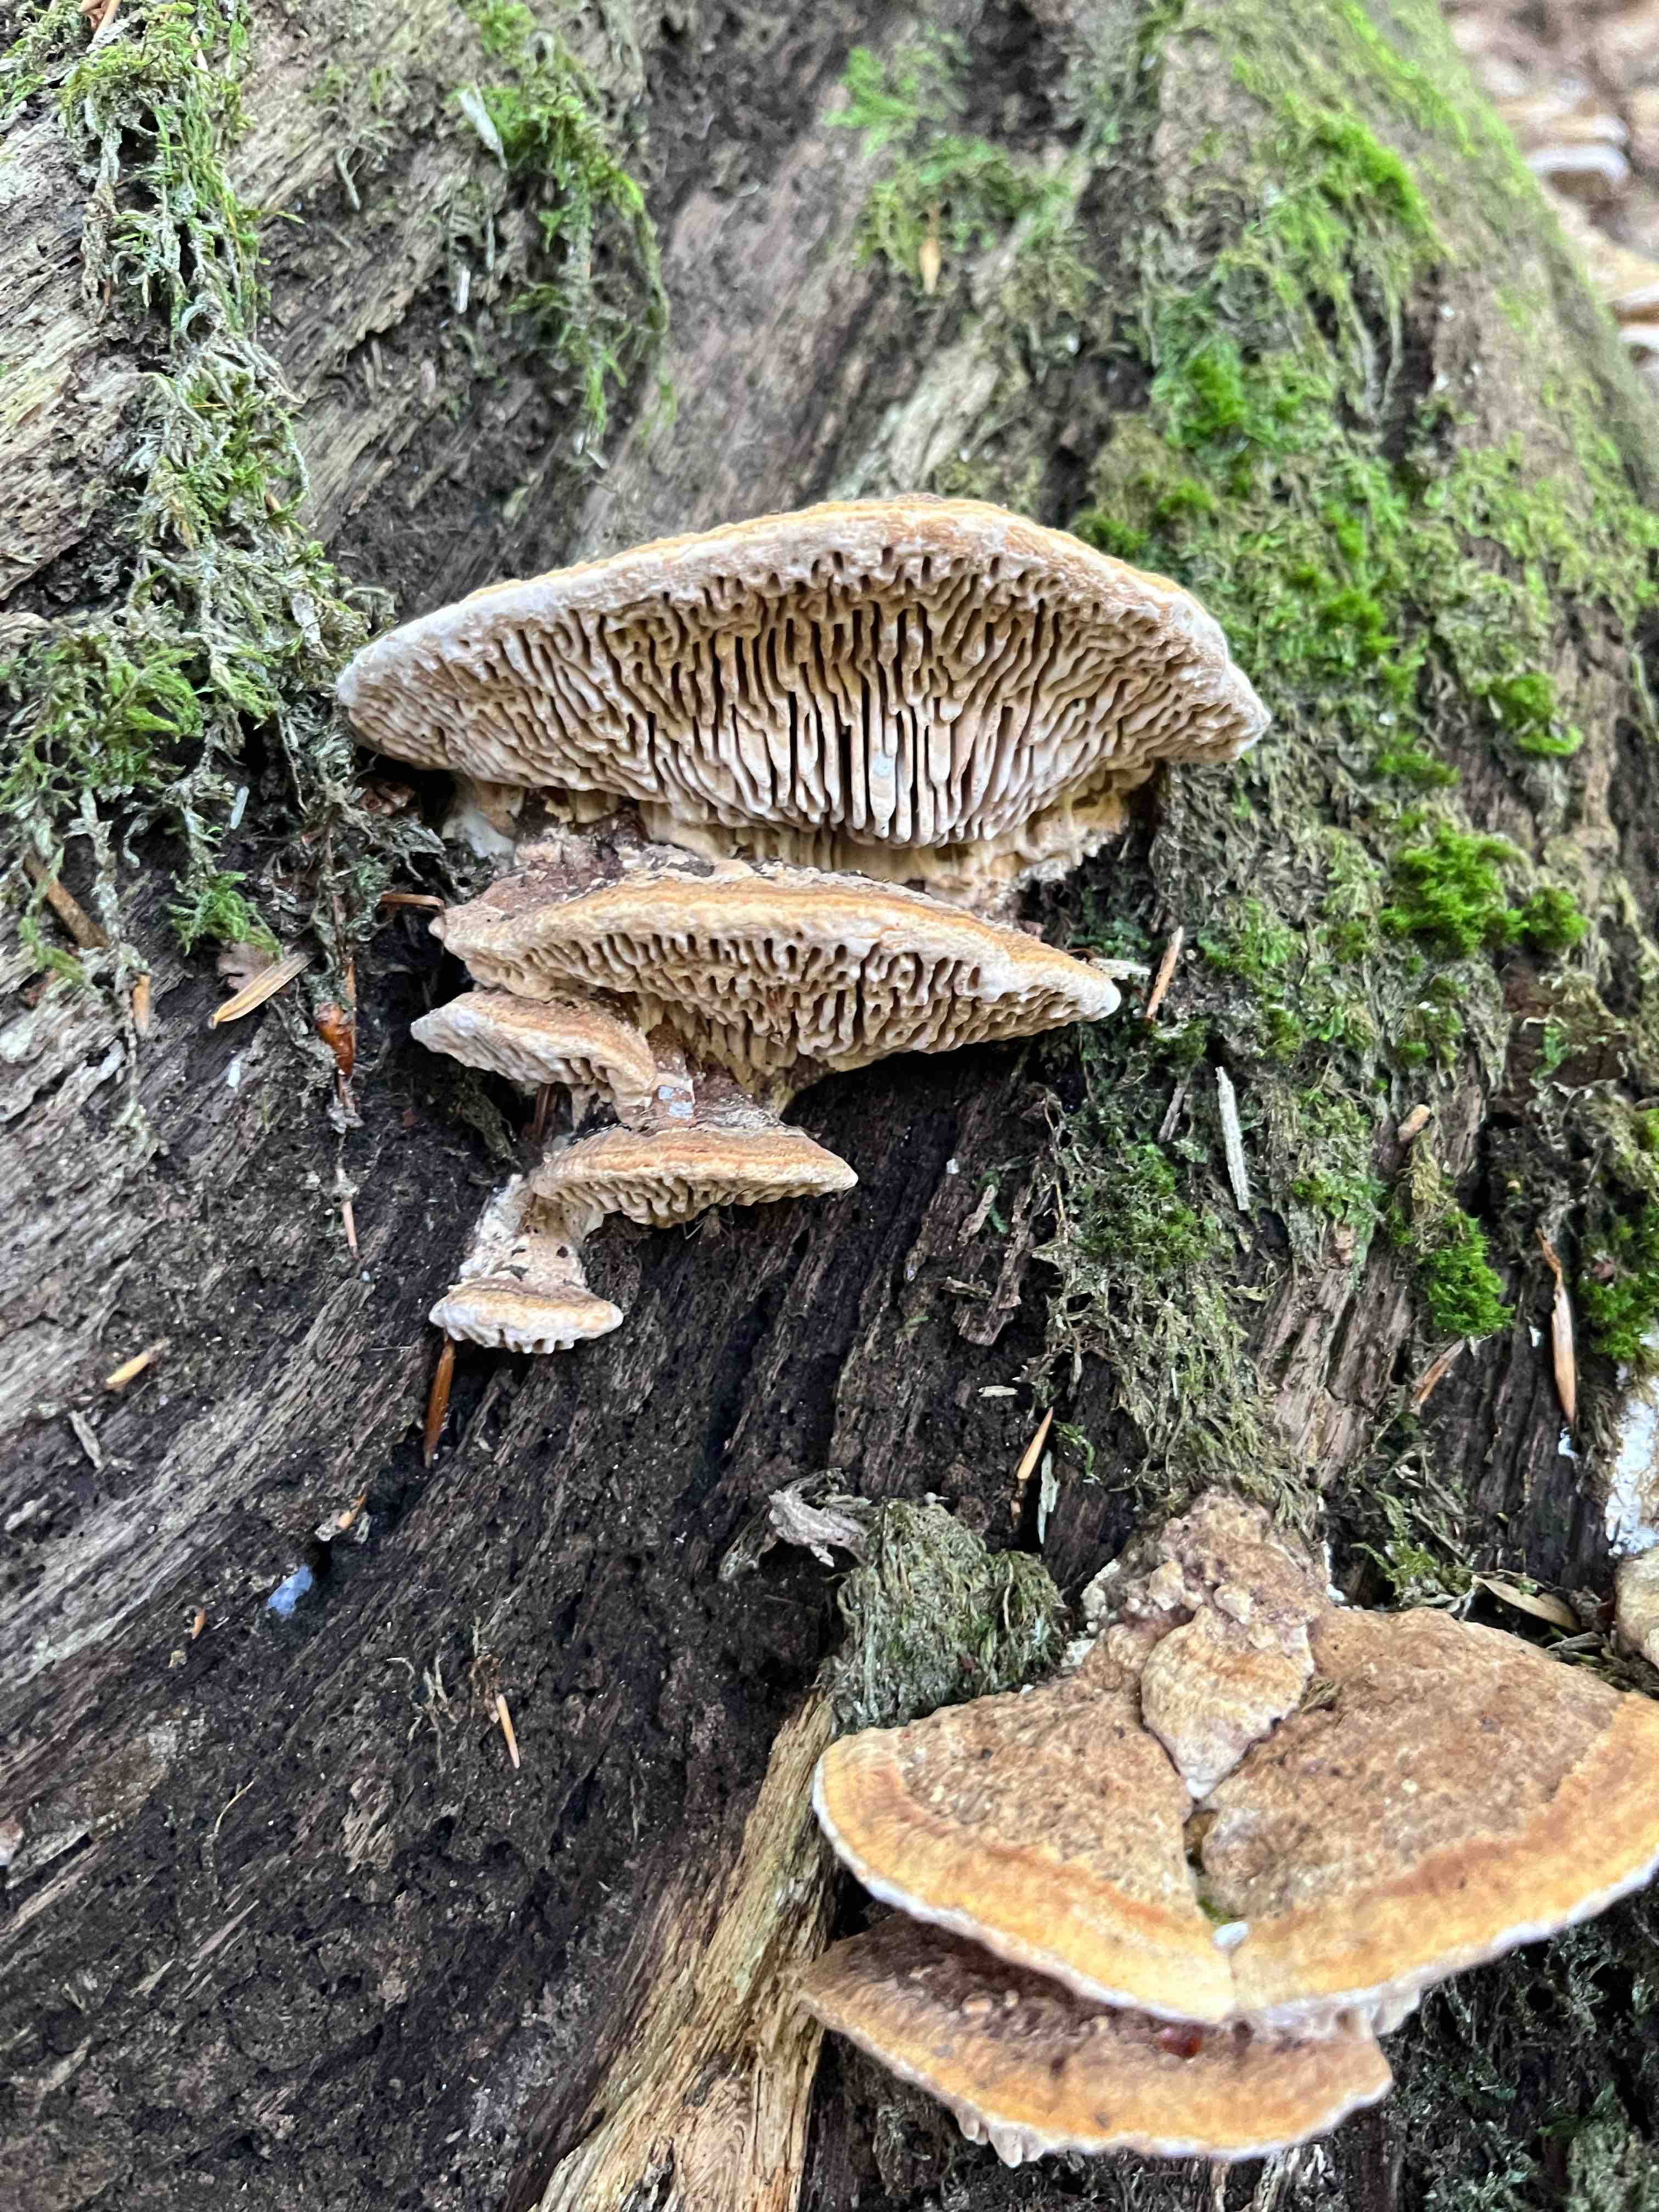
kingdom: Fungi
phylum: Basidiomycota
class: Agaricomycetes
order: Polyporales
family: Fomitopsidaceae
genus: Daedalea
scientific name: Daedalea quercina
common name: ege-labyrintsvamp
